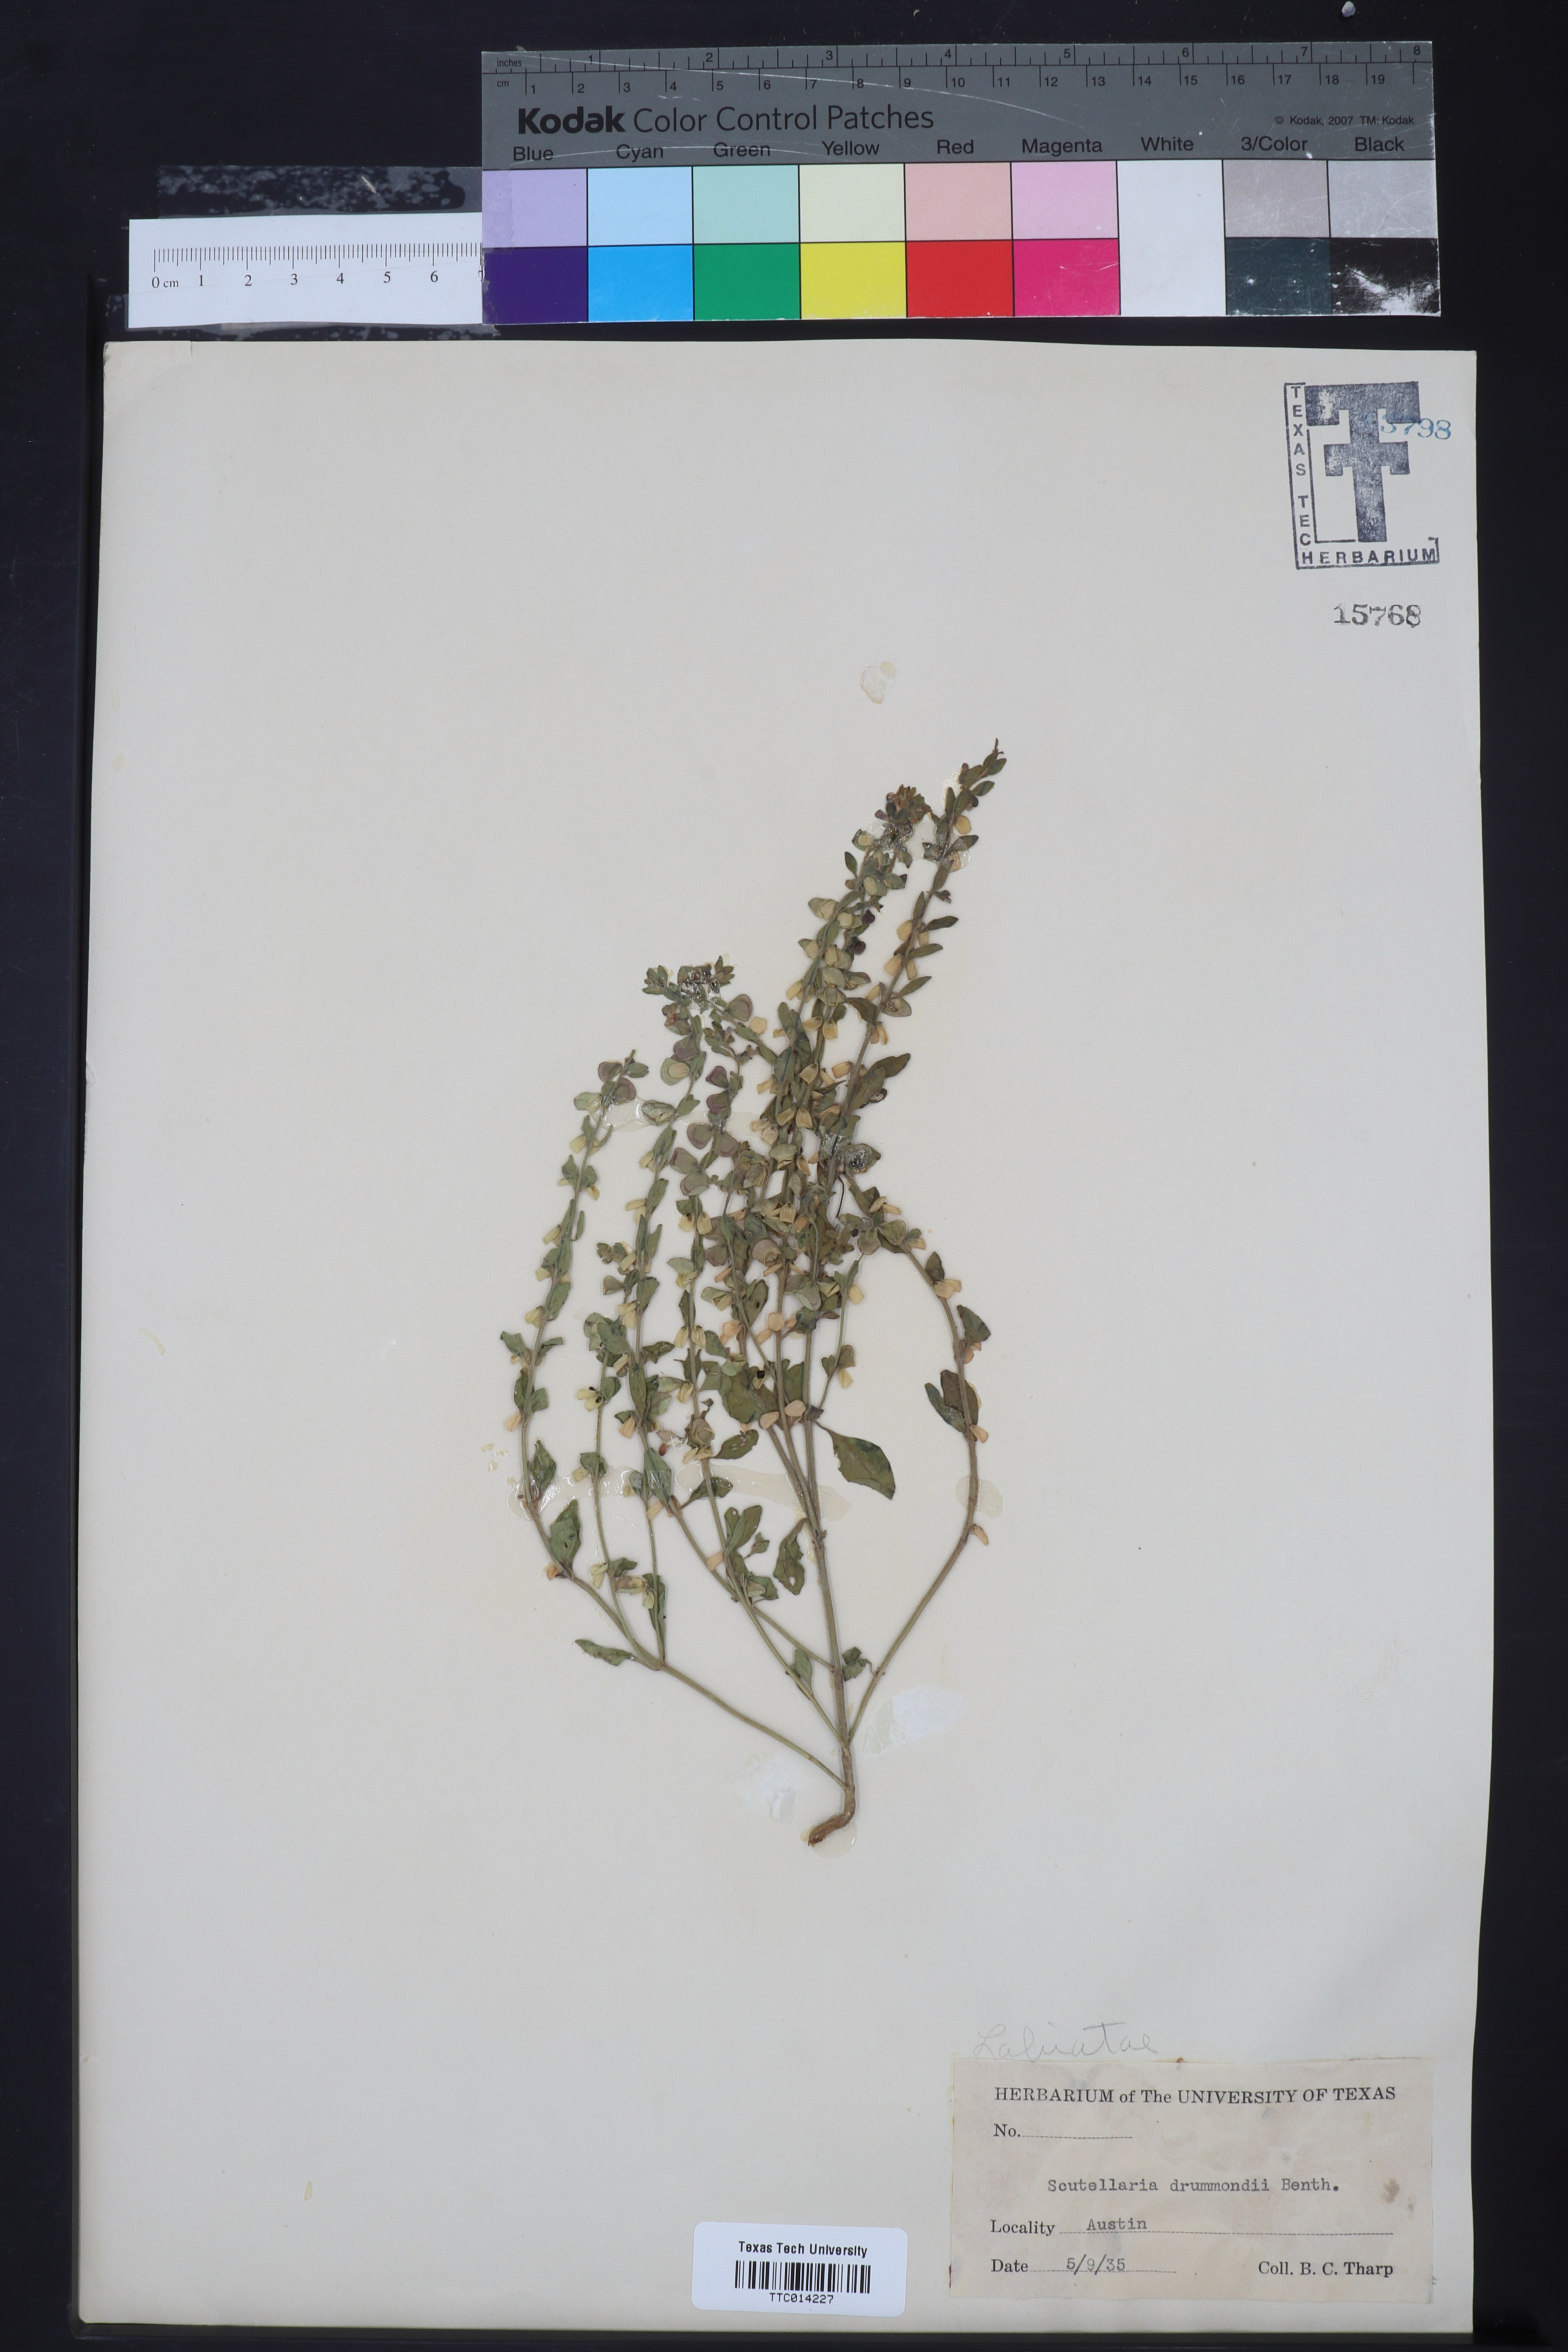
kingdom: Plantae
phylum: Tracheophyta
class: Magnoliopsida
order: Lamiales
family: Lamiaceae
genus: Scutellaria
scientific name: Scutellaria drummondii
